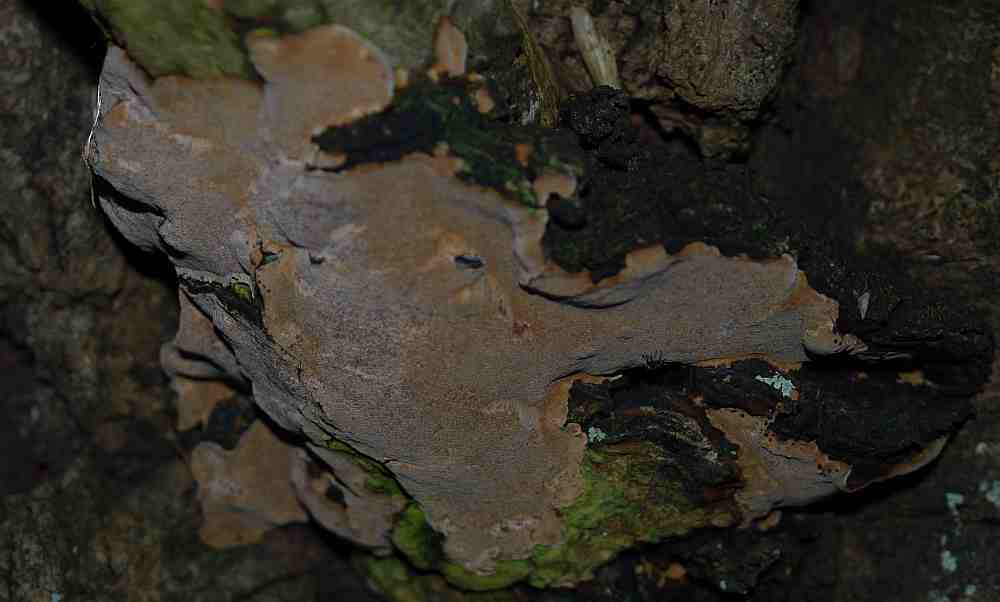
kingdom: Fungi
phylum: Basidiomycota
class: Agaricomycetes
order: Hymenochaetales
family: Hymenochaetaceae
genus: Phellinus
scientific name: Phellinus tremulae
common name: aspe-ildporesvamp
